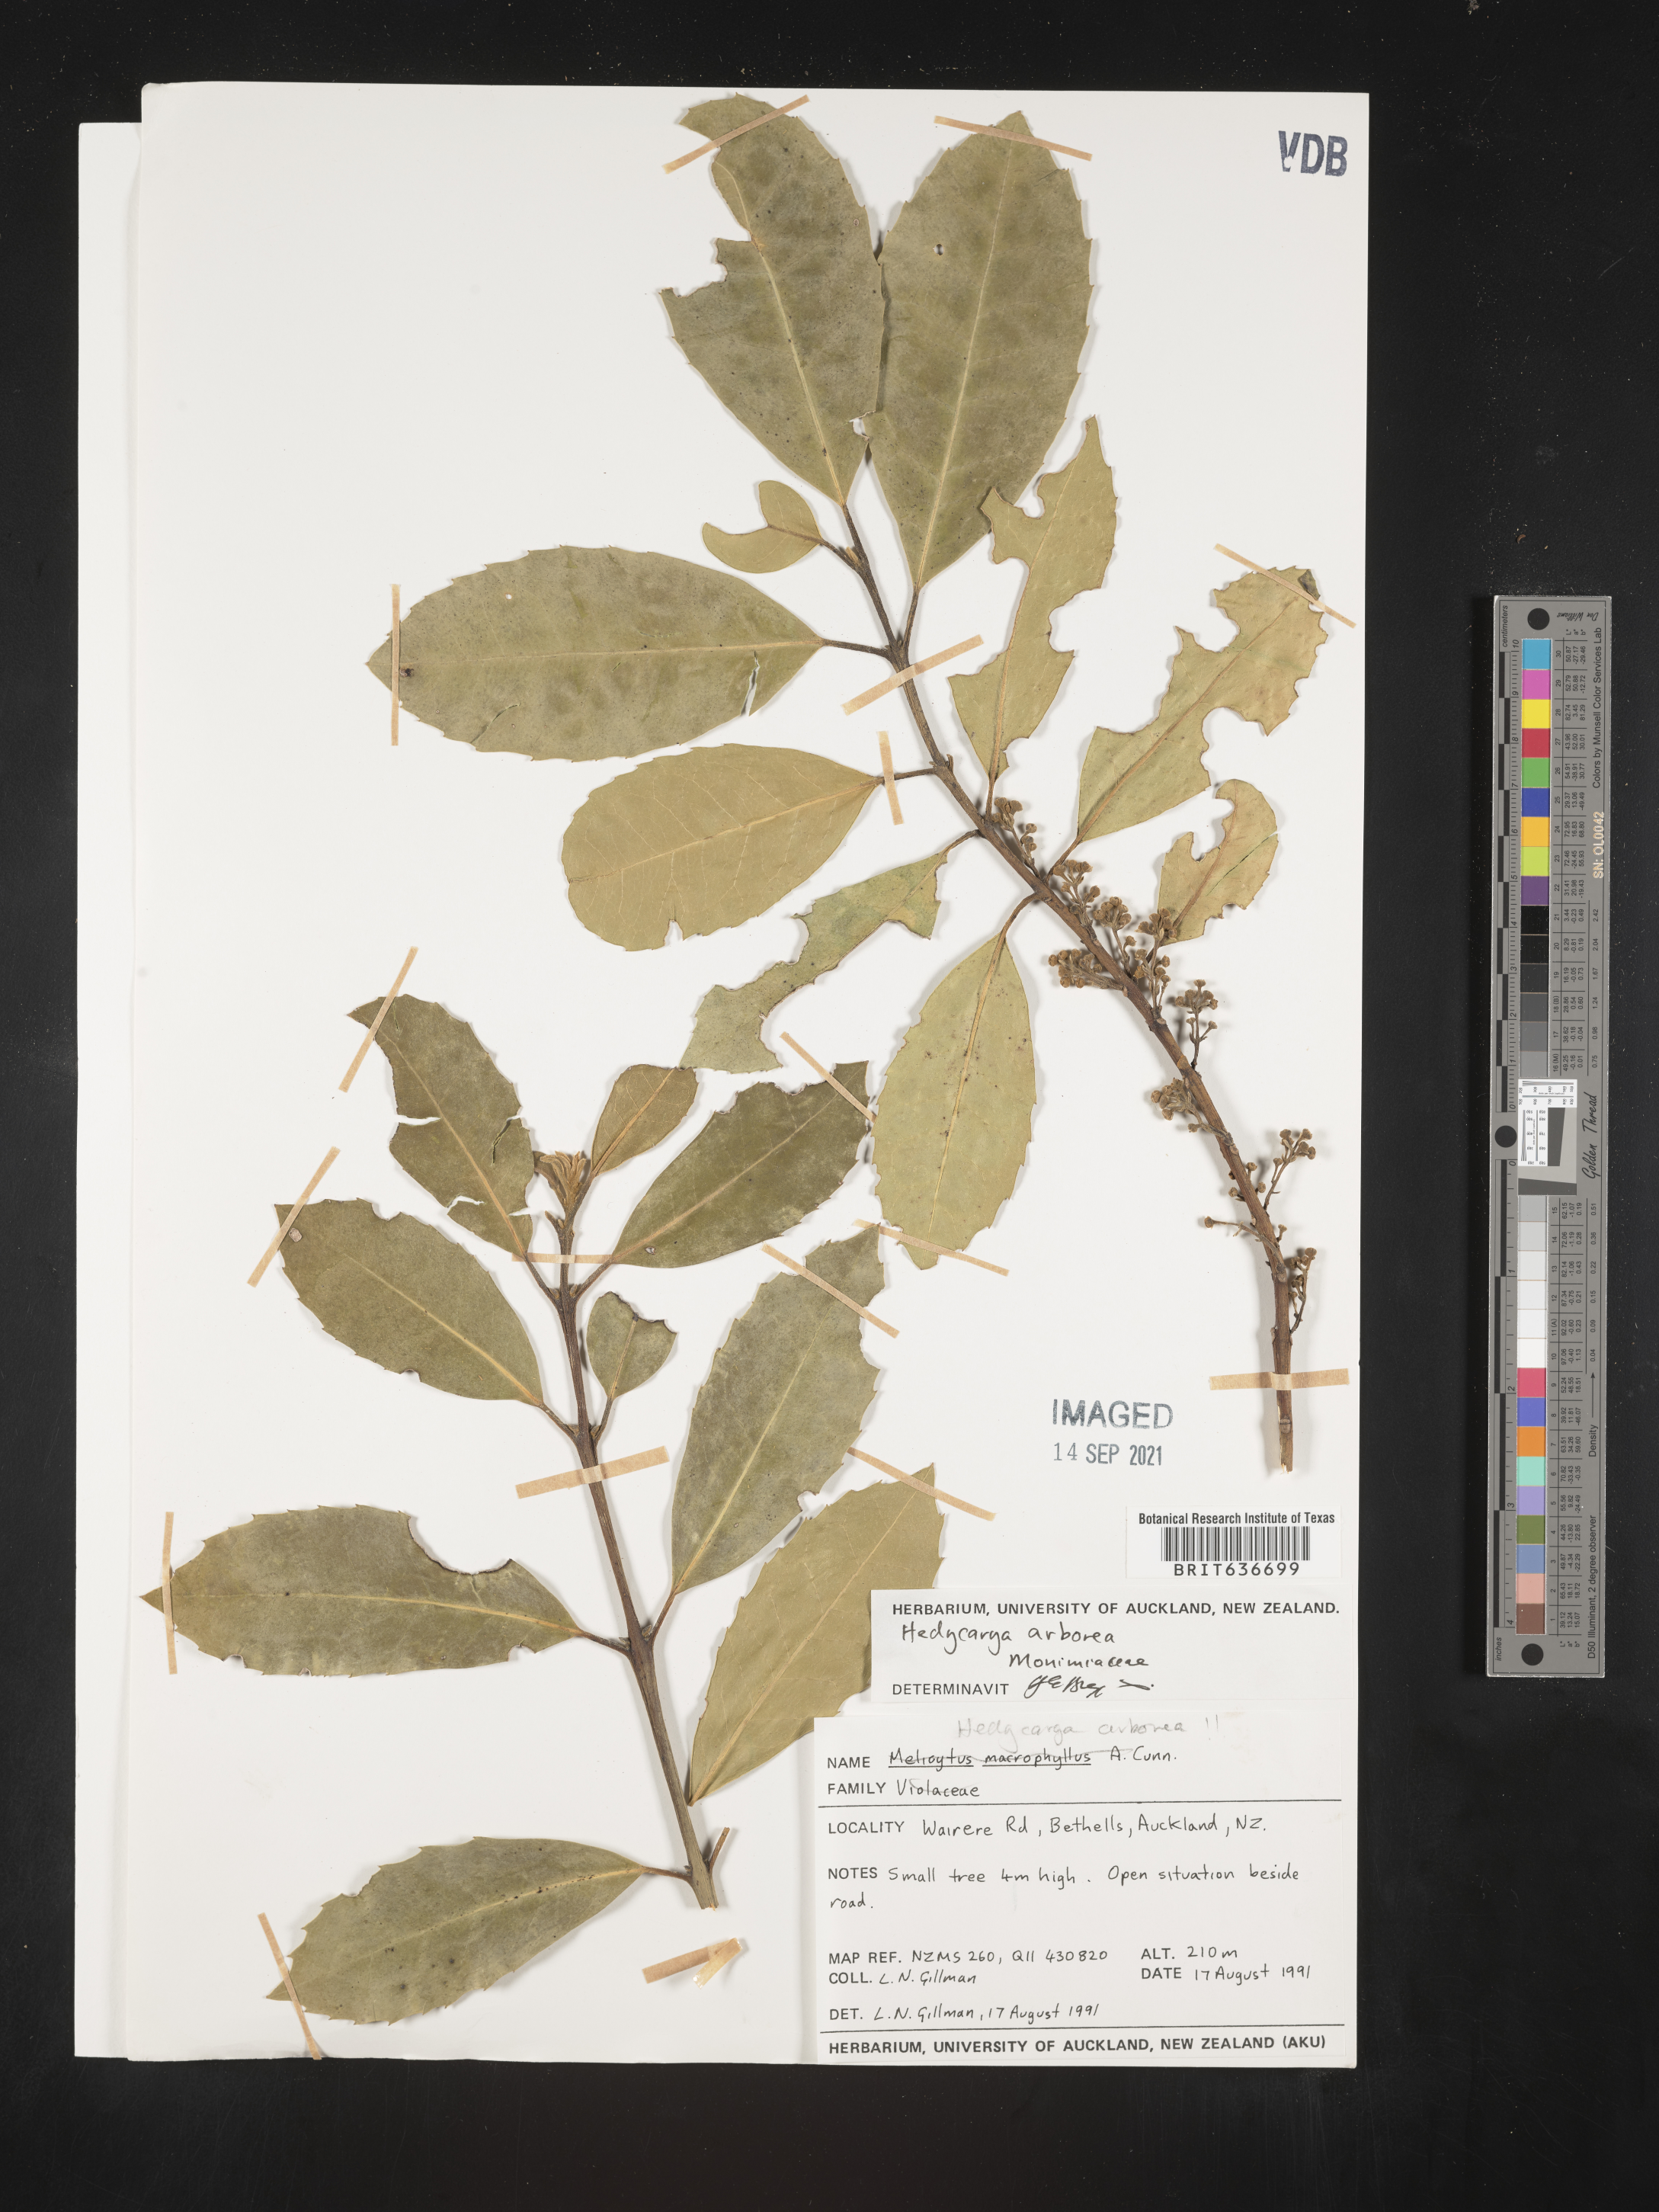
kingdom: Plantae
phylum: Tracheophyta
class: Magnoliopsida
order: Laurales
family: Monimiaceae
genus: Hedycarya
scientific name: Hedycarya
